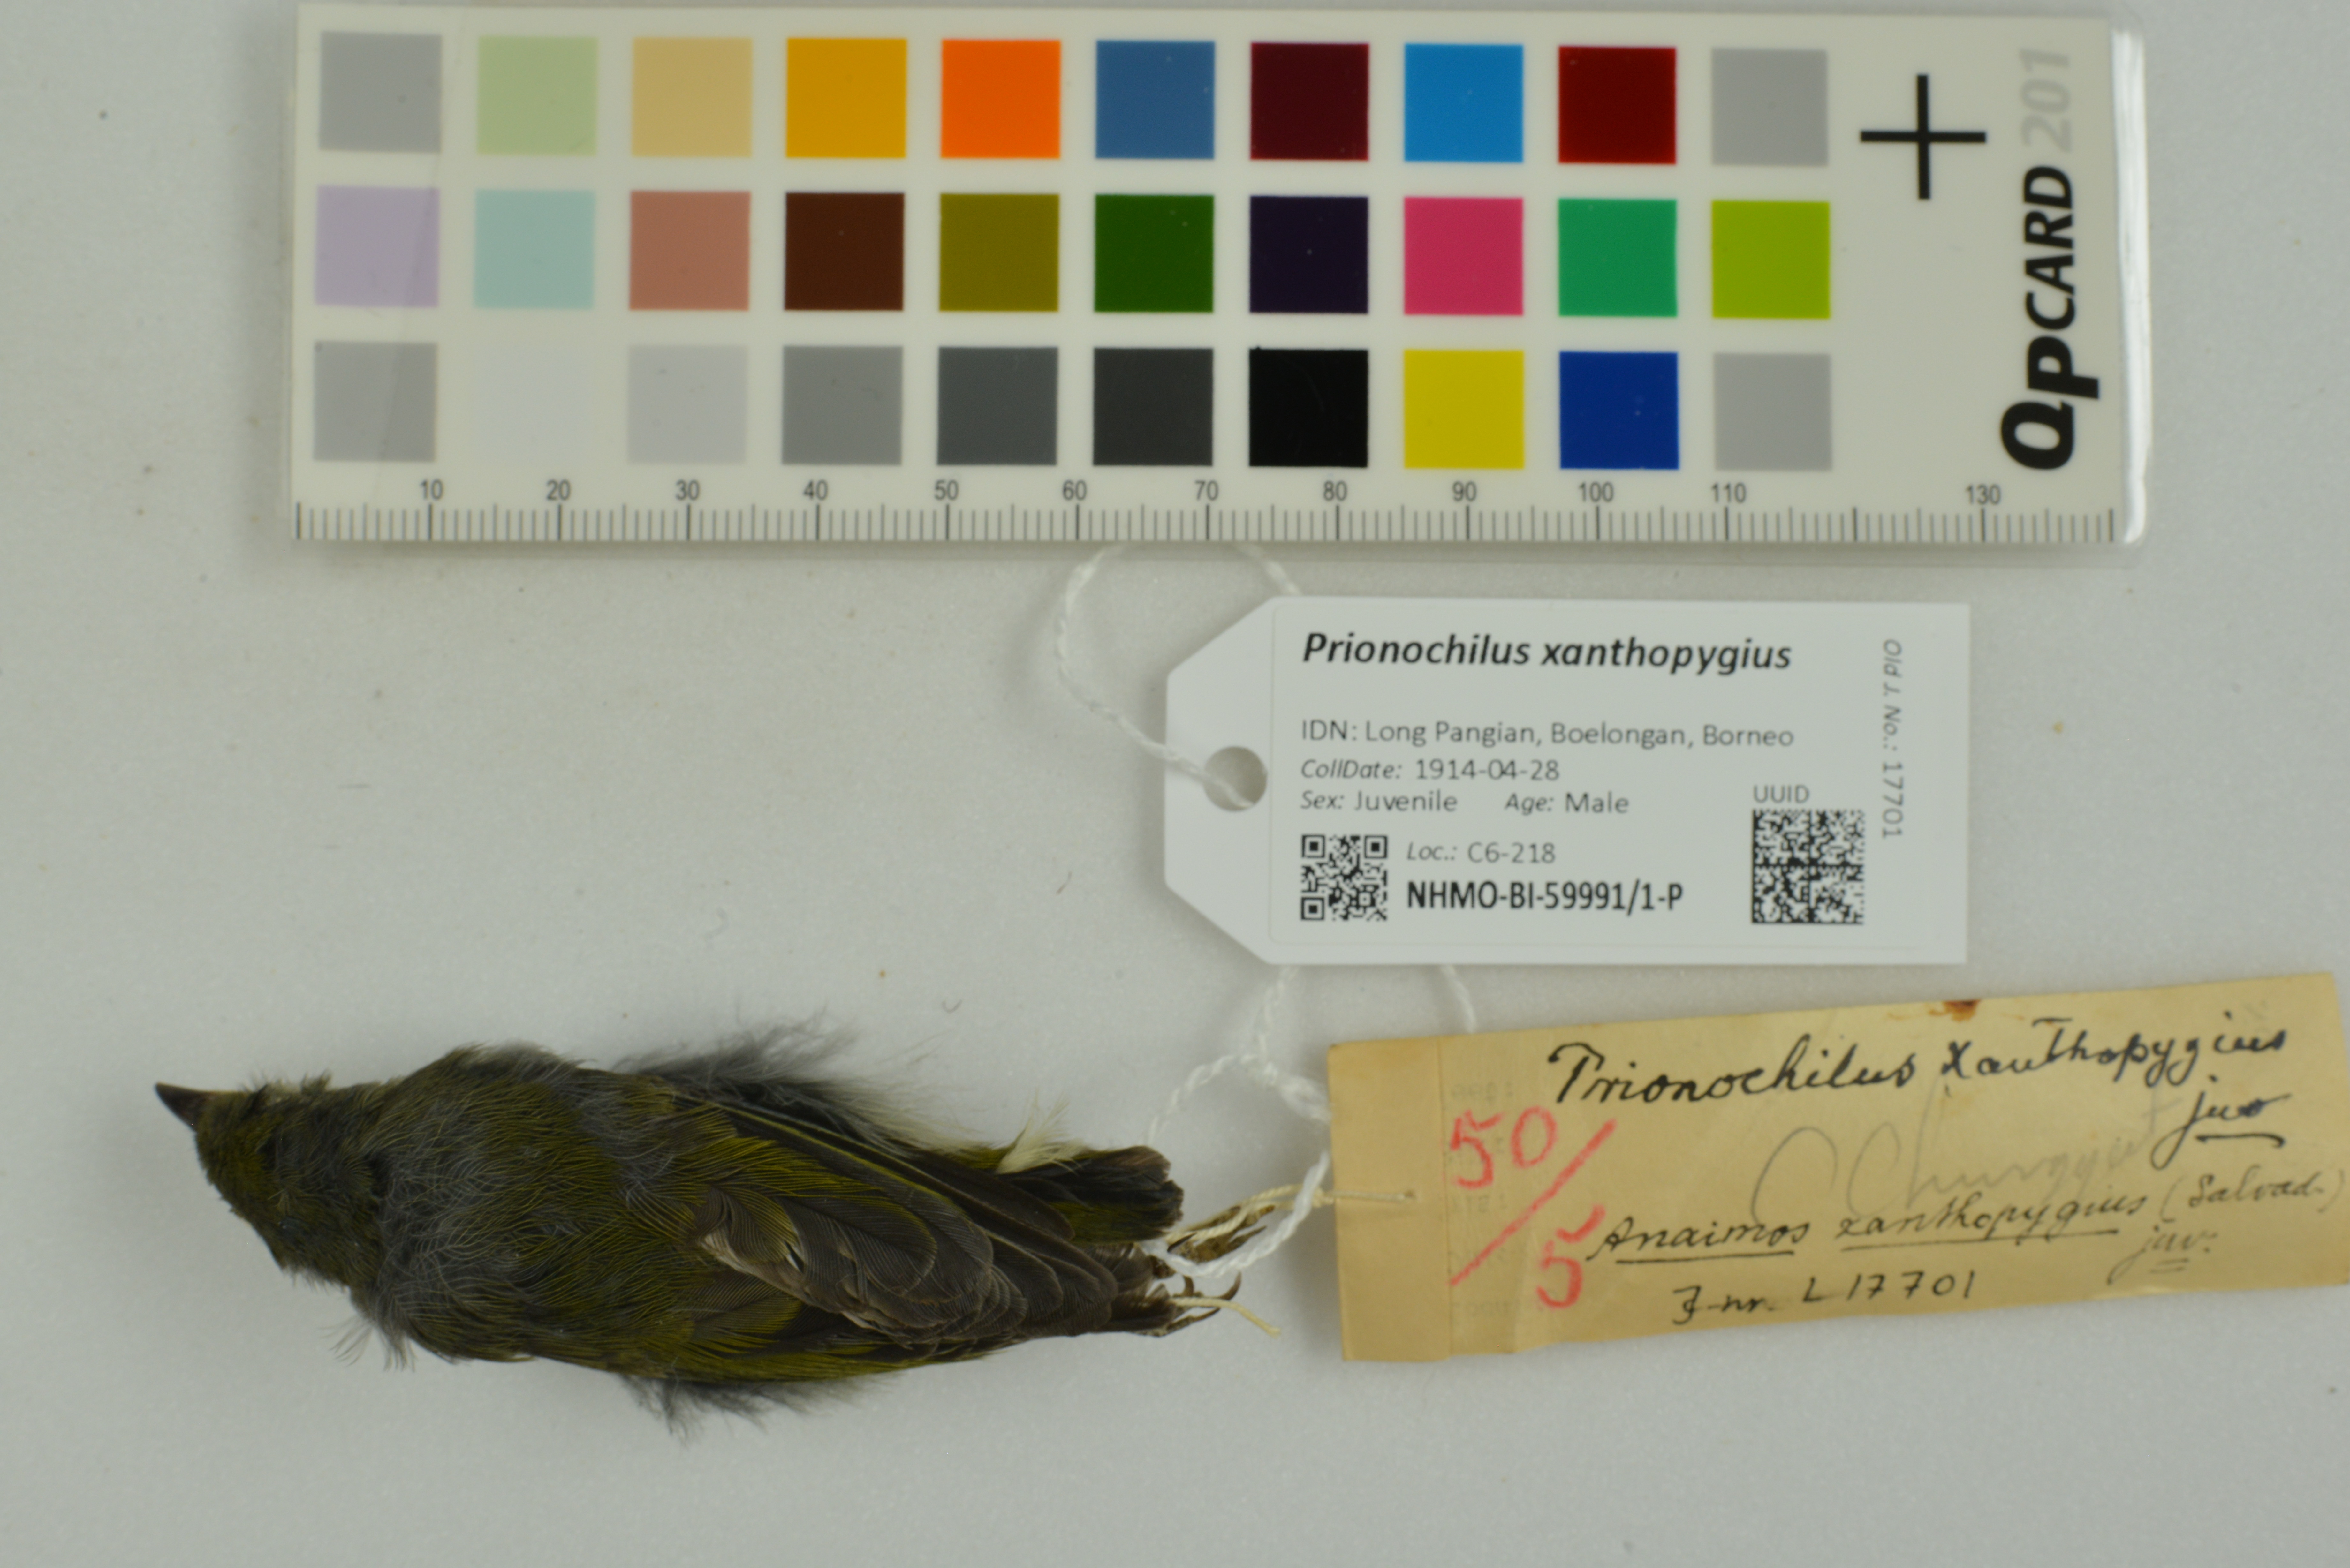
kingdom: Animalia
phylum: Chordata
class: Aves
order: Passeriformes
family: Dicaeidae
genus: Prionochilus
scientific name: Prionochilus xanthopygius
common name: Yellow-rumped flowerpecker
